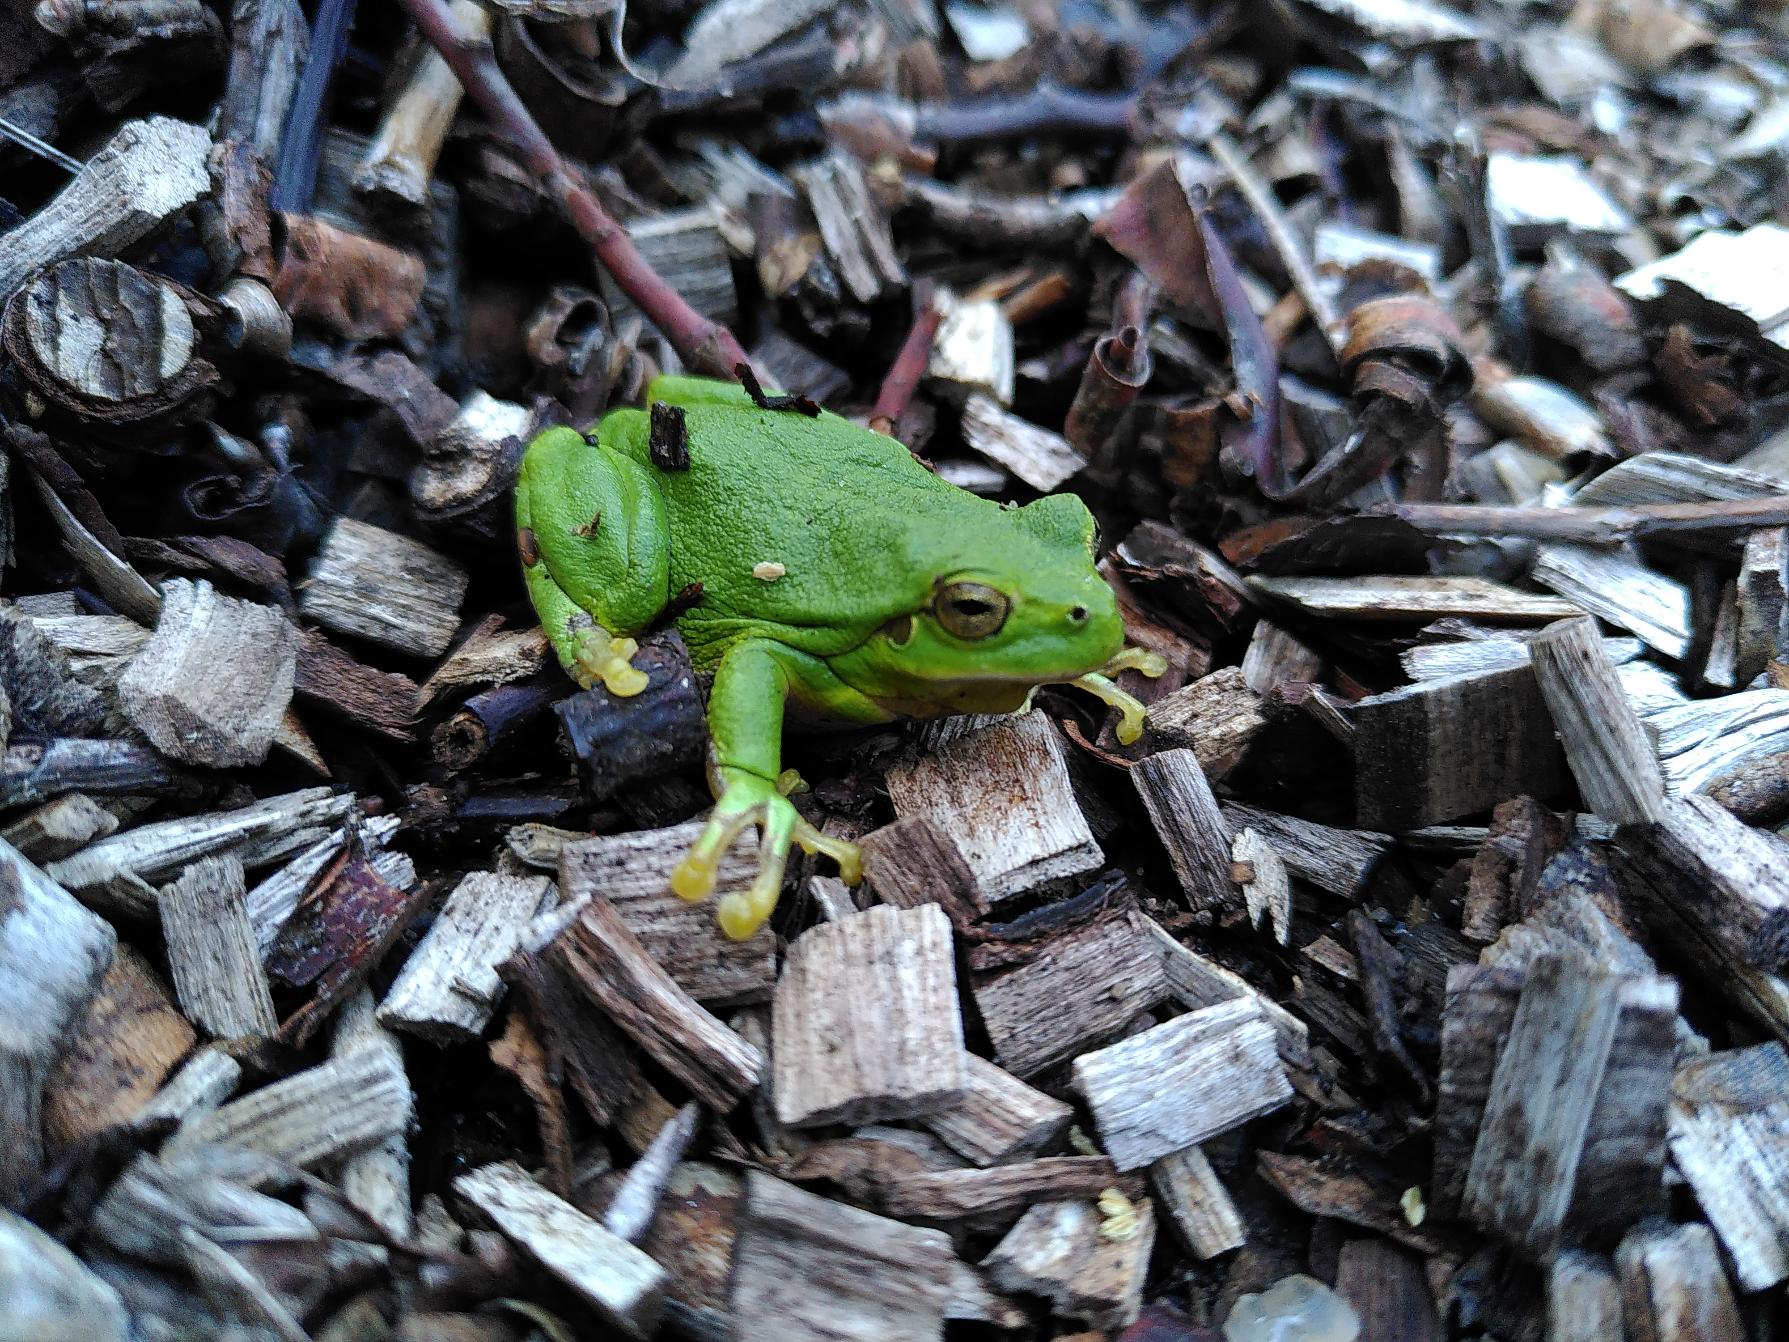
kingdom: Animalia
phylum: Chordata
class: Amphibia
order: Anura
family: Hylidae
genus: Hyla
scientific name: Hyla arborea
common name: Løvfrø
